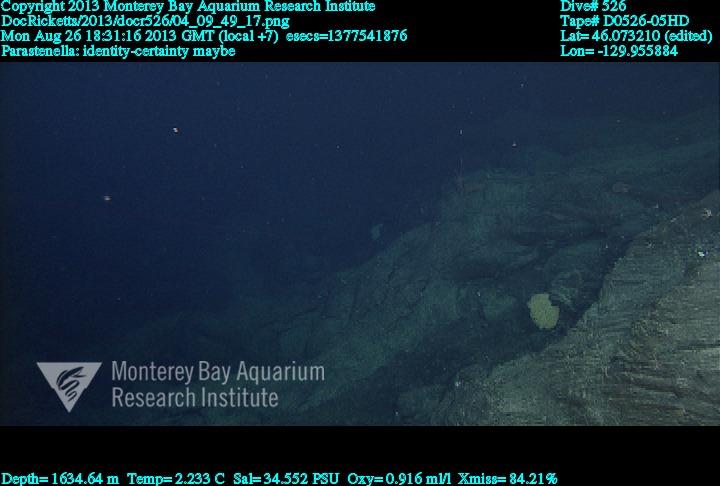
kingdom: Animalia
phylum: Cnidaria
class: Anthozoa
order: Scleralcyonacea
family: Primnoidae
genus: Parastenella
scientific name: Parastenella
